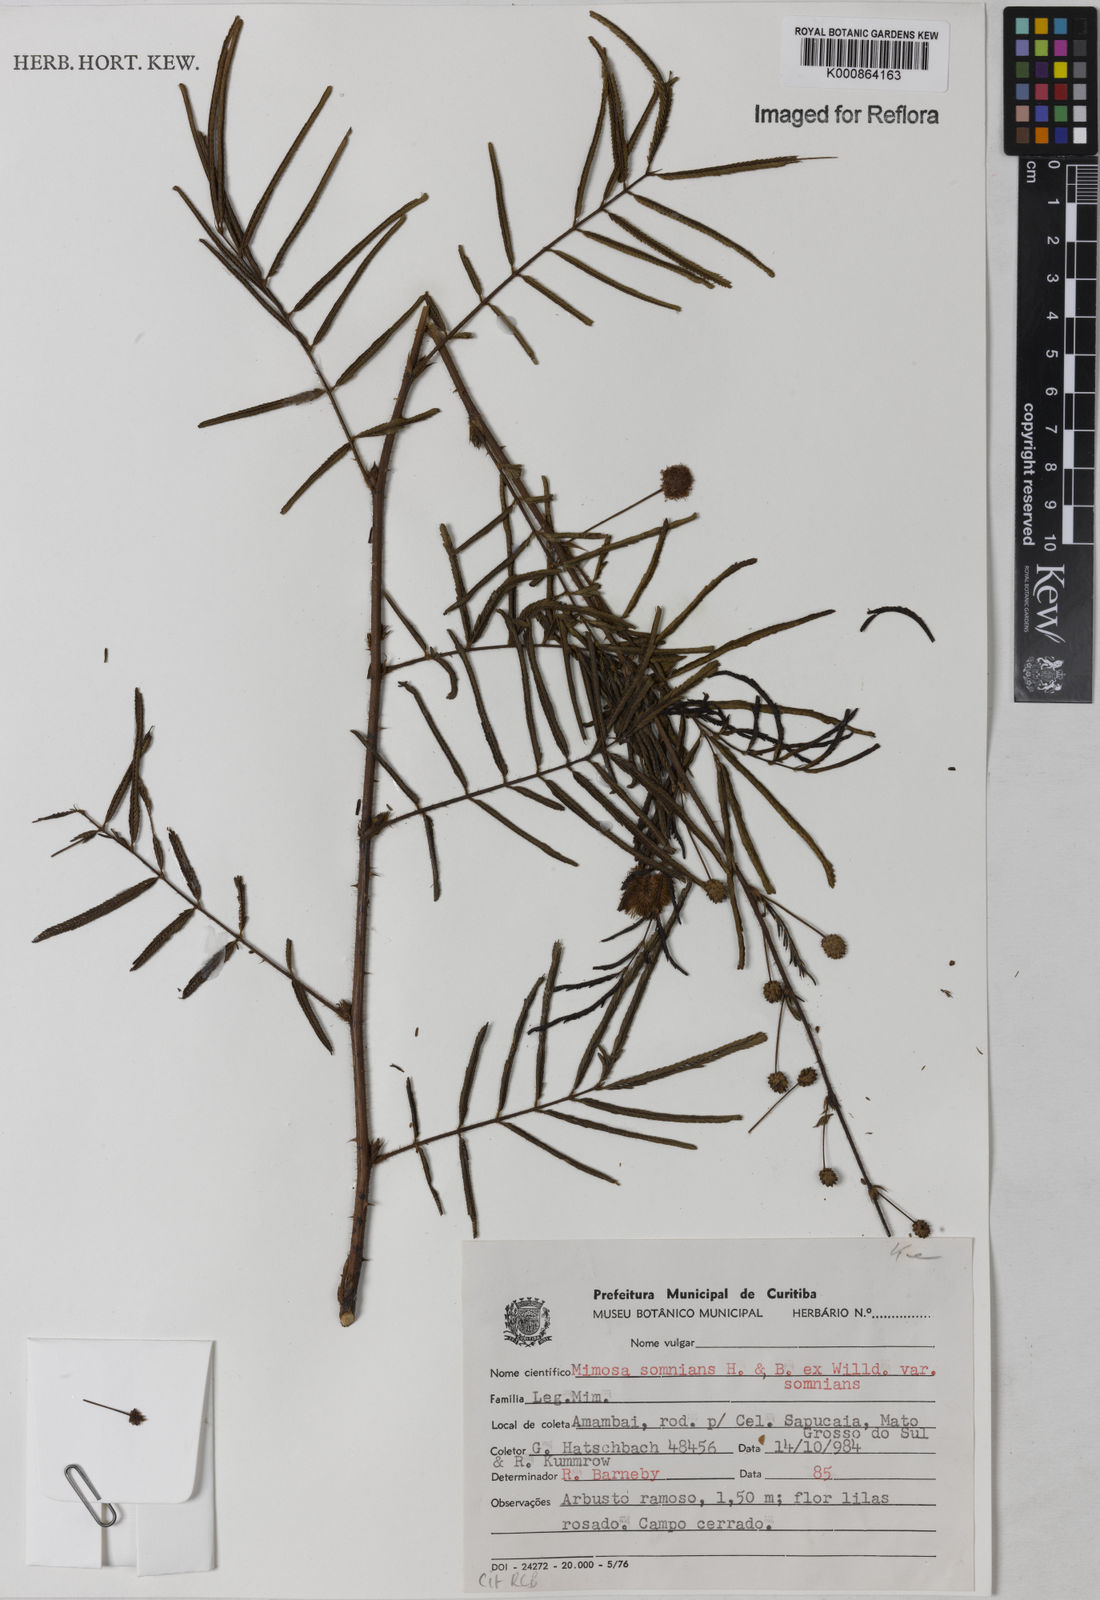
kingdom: Plantae
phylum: Tracheophyta
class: Magnoliopsida
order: Fabales
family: Fabaceae
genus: Mimosa
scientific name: Mimosa somnians
